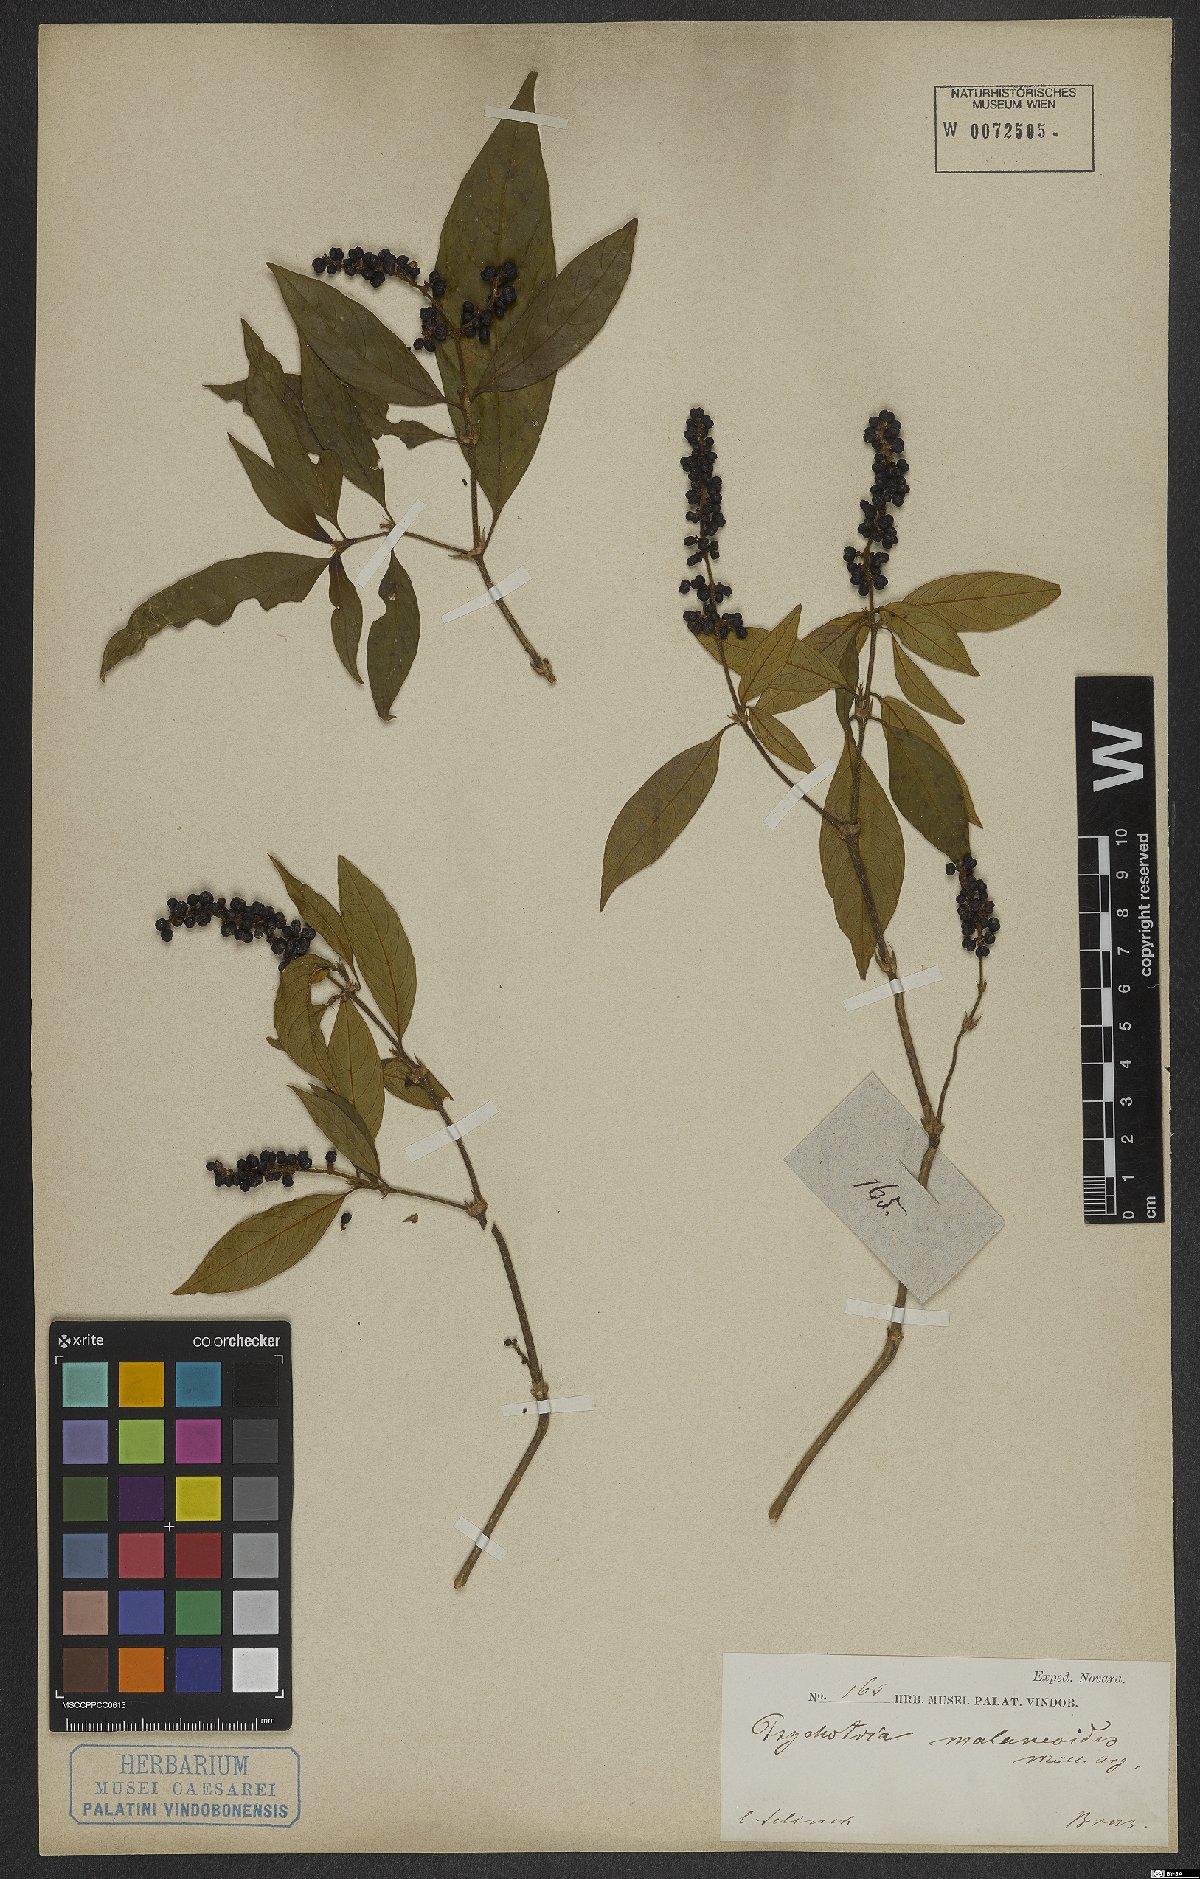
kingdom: Plantae
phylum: Tracheophyta
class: Magnoliopsida
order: Gentianales
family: Rubiaceae
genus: Palicourea
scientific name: Palicourea malaneoides
